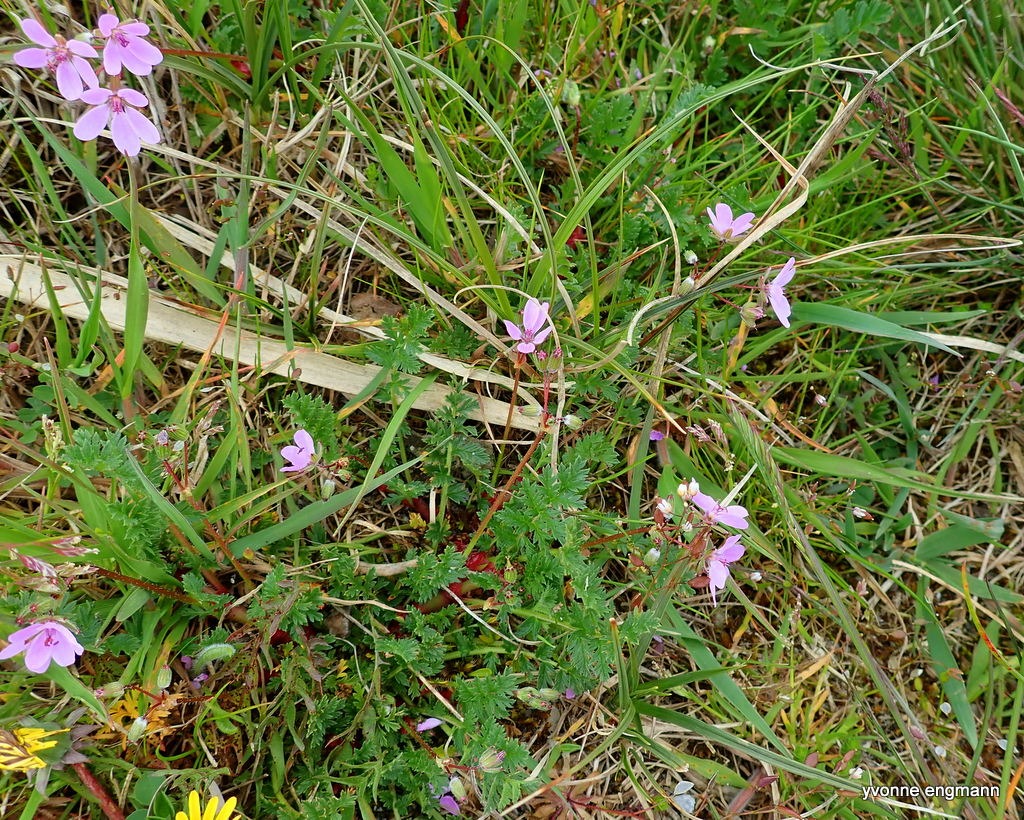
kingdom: Plantae
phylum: Tracheophyta
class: Magnoliopsida
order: Geraniales
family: Geraniaceae
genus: Erodium
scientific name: Erodium cicutarium
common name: Hejrenæb
